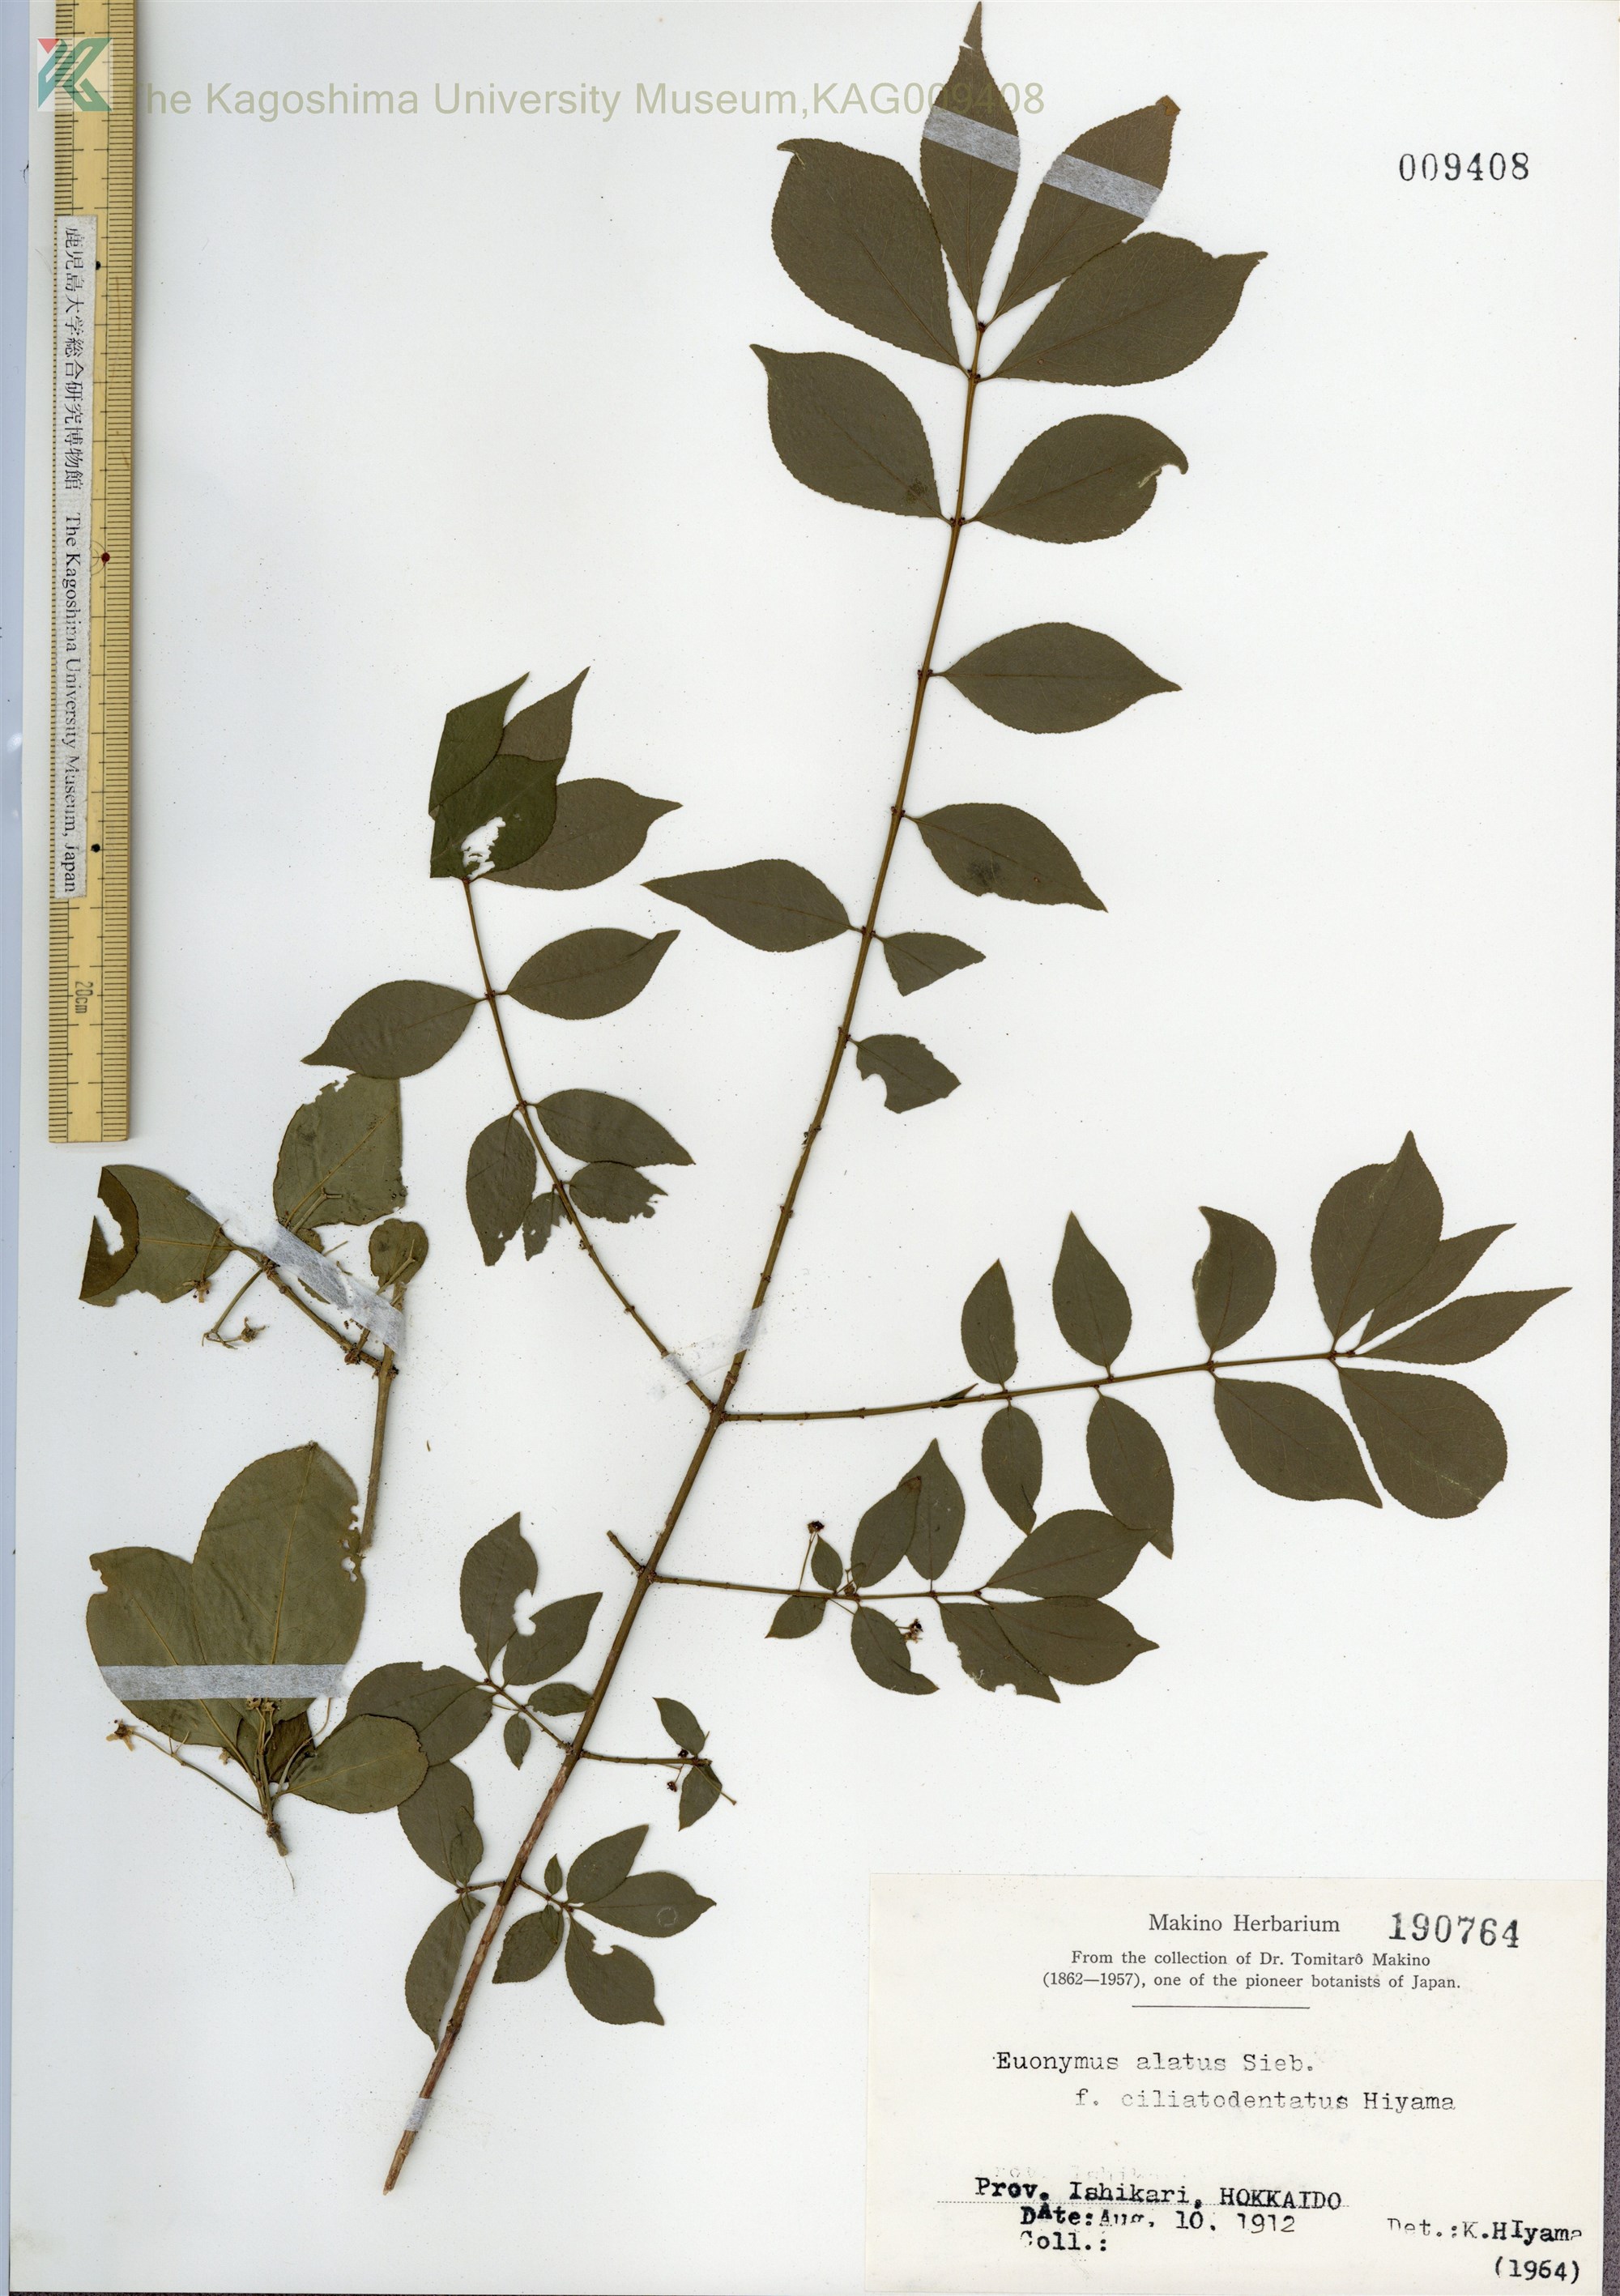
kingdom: Plantae
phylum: Tracheophyta
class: Magnoliopsida
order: Celastrales
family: Celastraceae
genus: Euonymus
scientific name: Euonymus alatus
